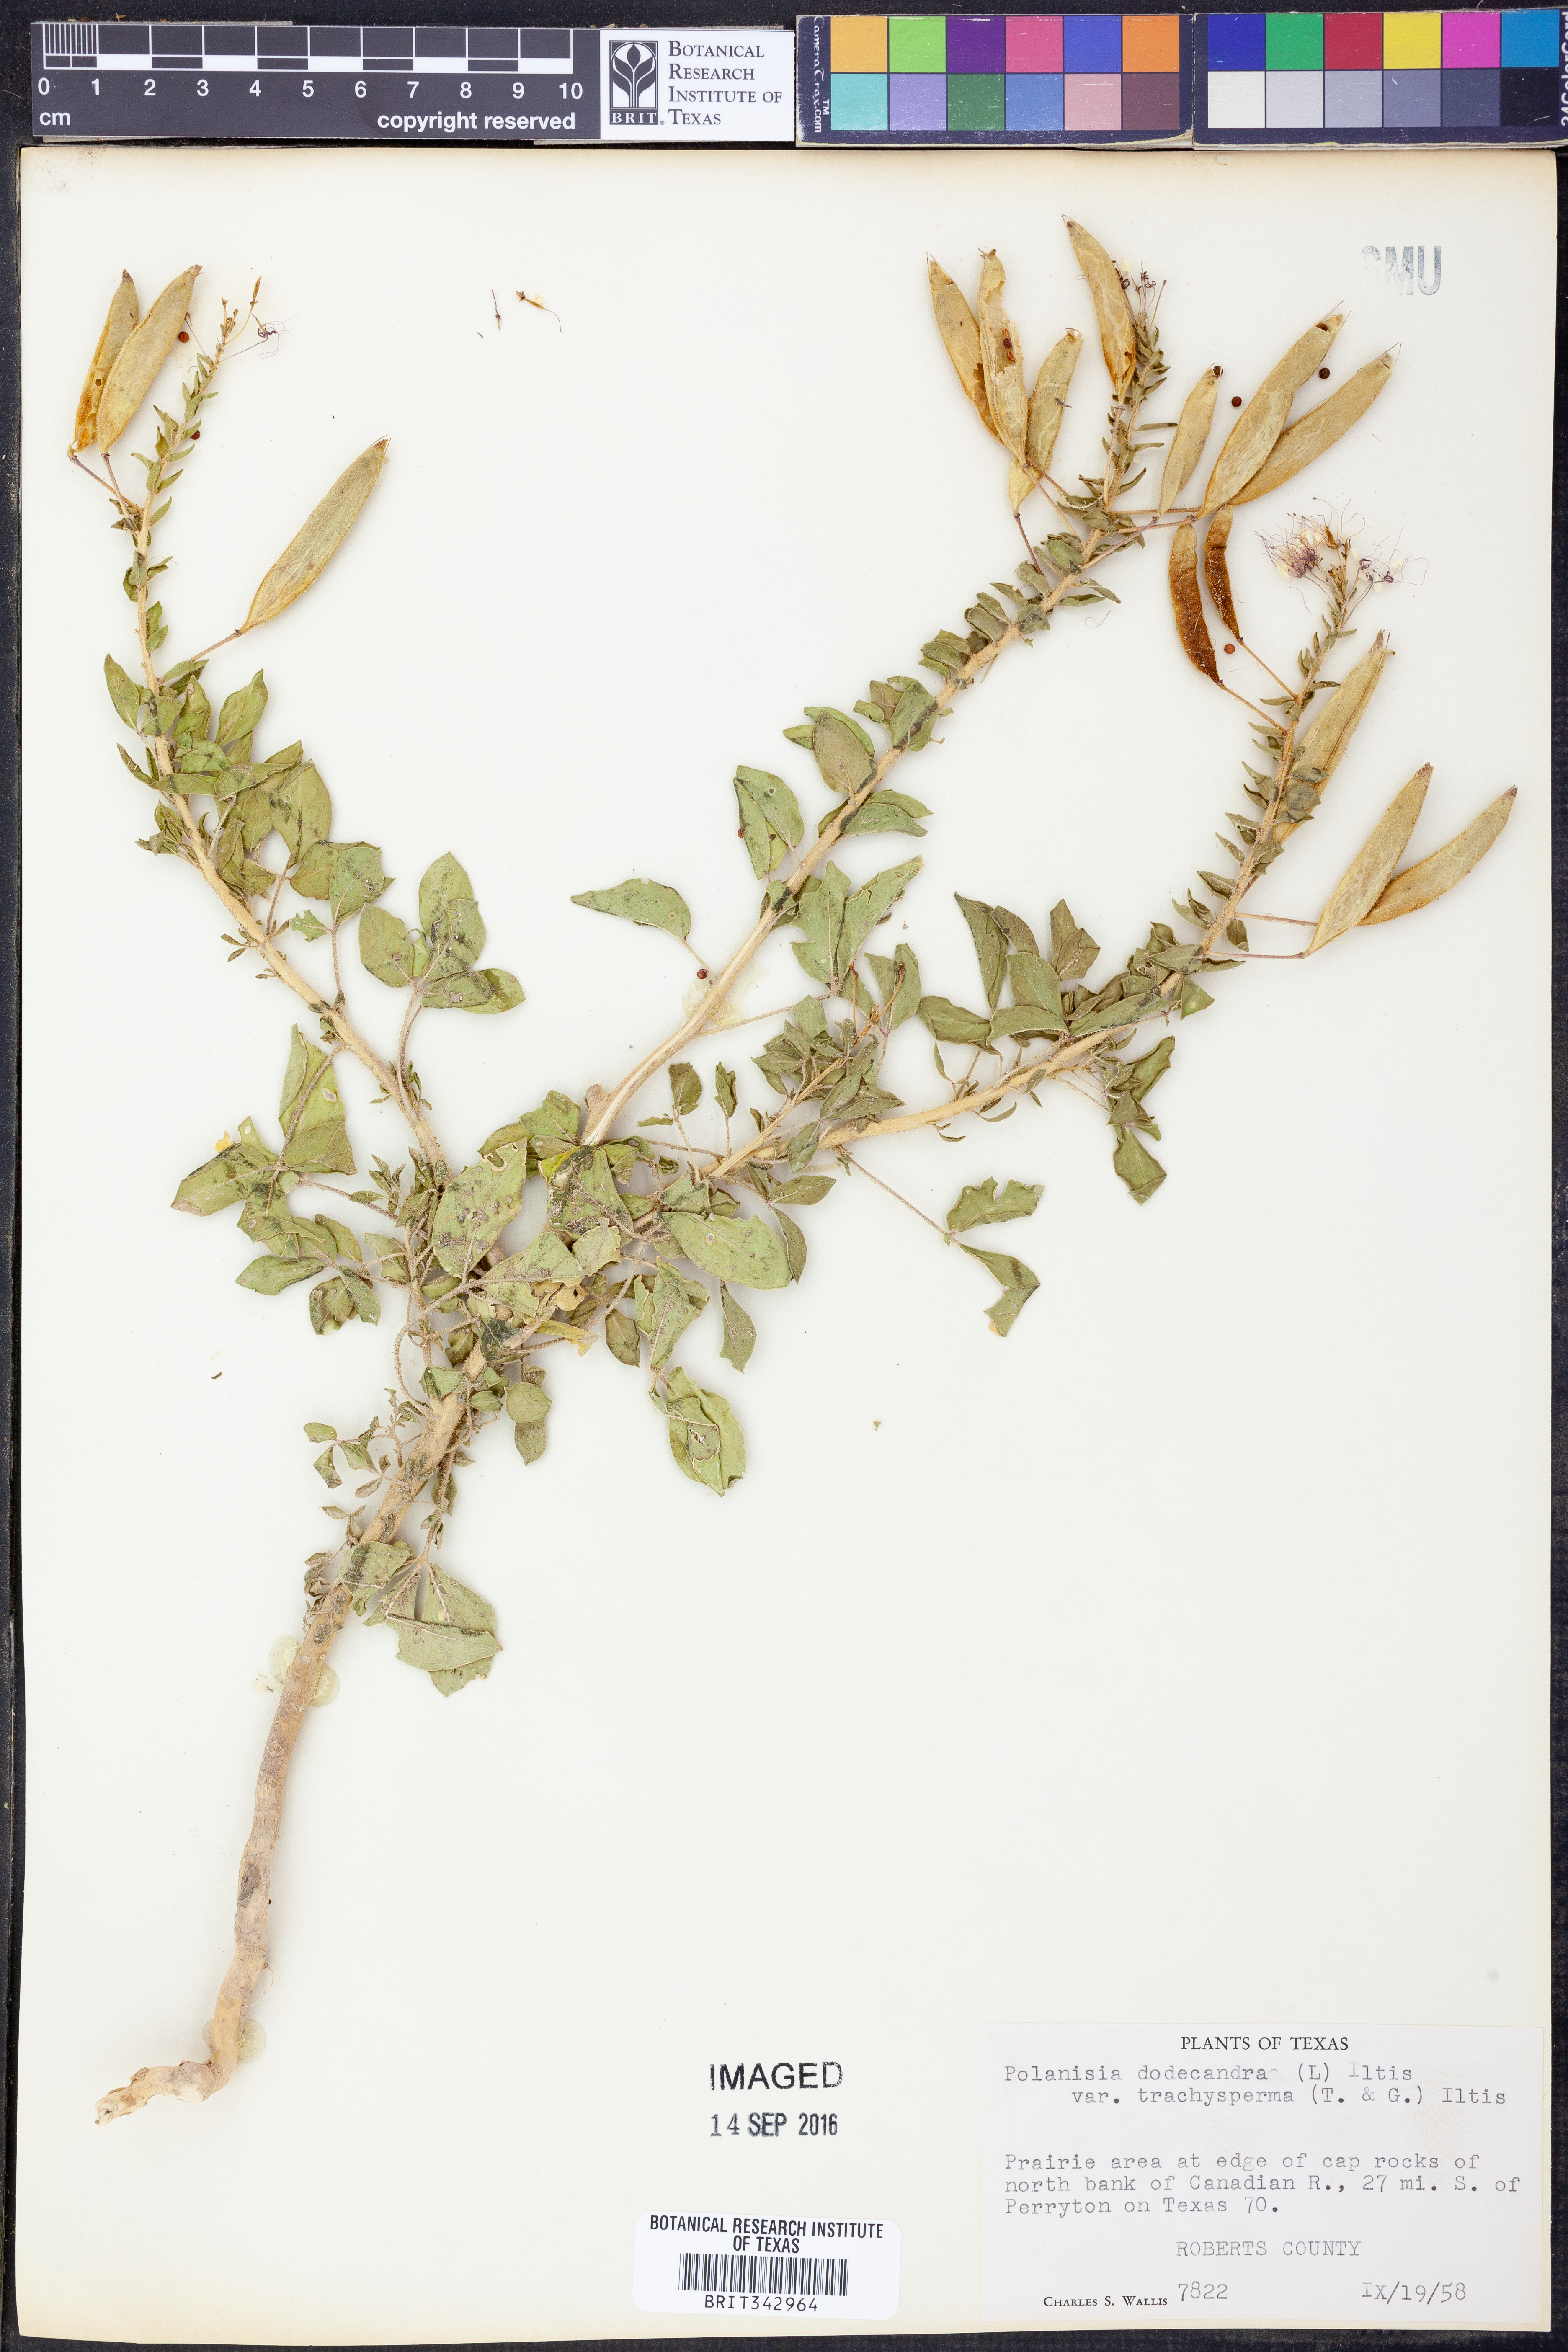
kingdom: Plantae
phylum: Tracheophyta
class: Magnoliopsida
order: Brassicales
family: Cleomaceae
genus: Polanisia
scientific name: Polanisia trachysperma
